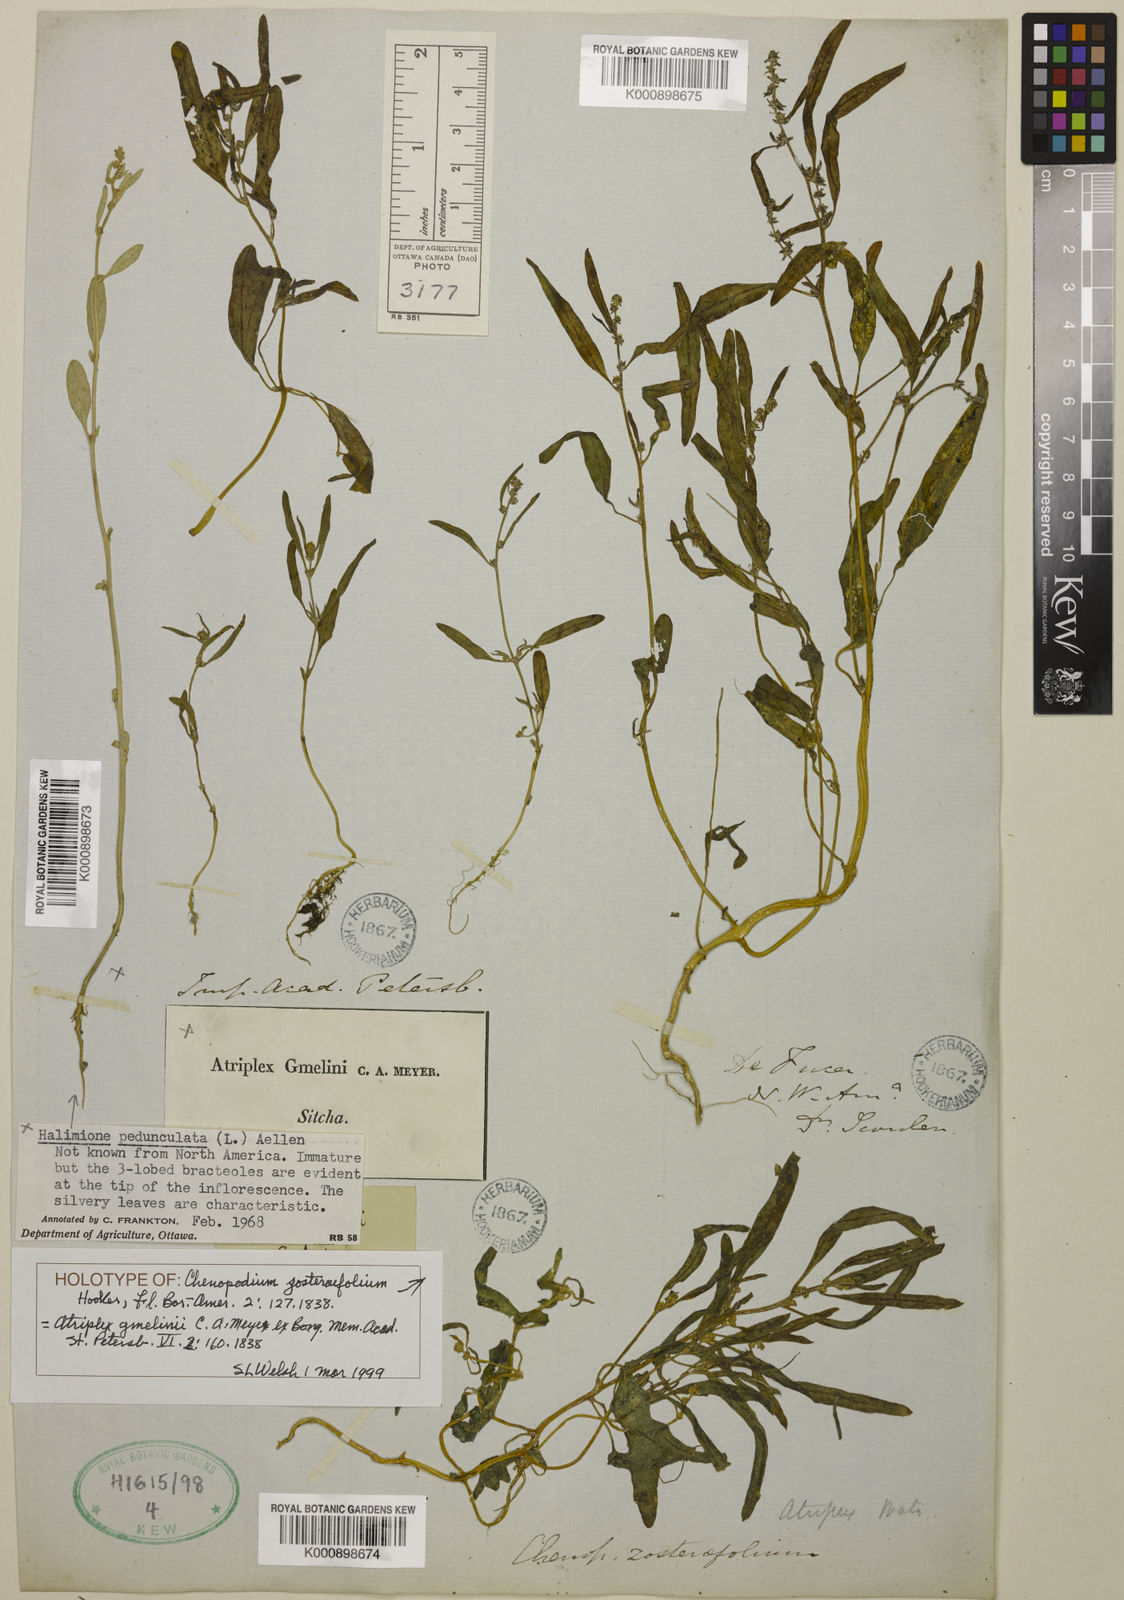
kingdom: Plantae
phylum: Tracheophyta
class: Magnoliopsida
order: Caryophyllales
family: Amaranthaceae
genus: Atriplex
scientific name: Atriplex gmelinii
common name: Gmelin's orach
